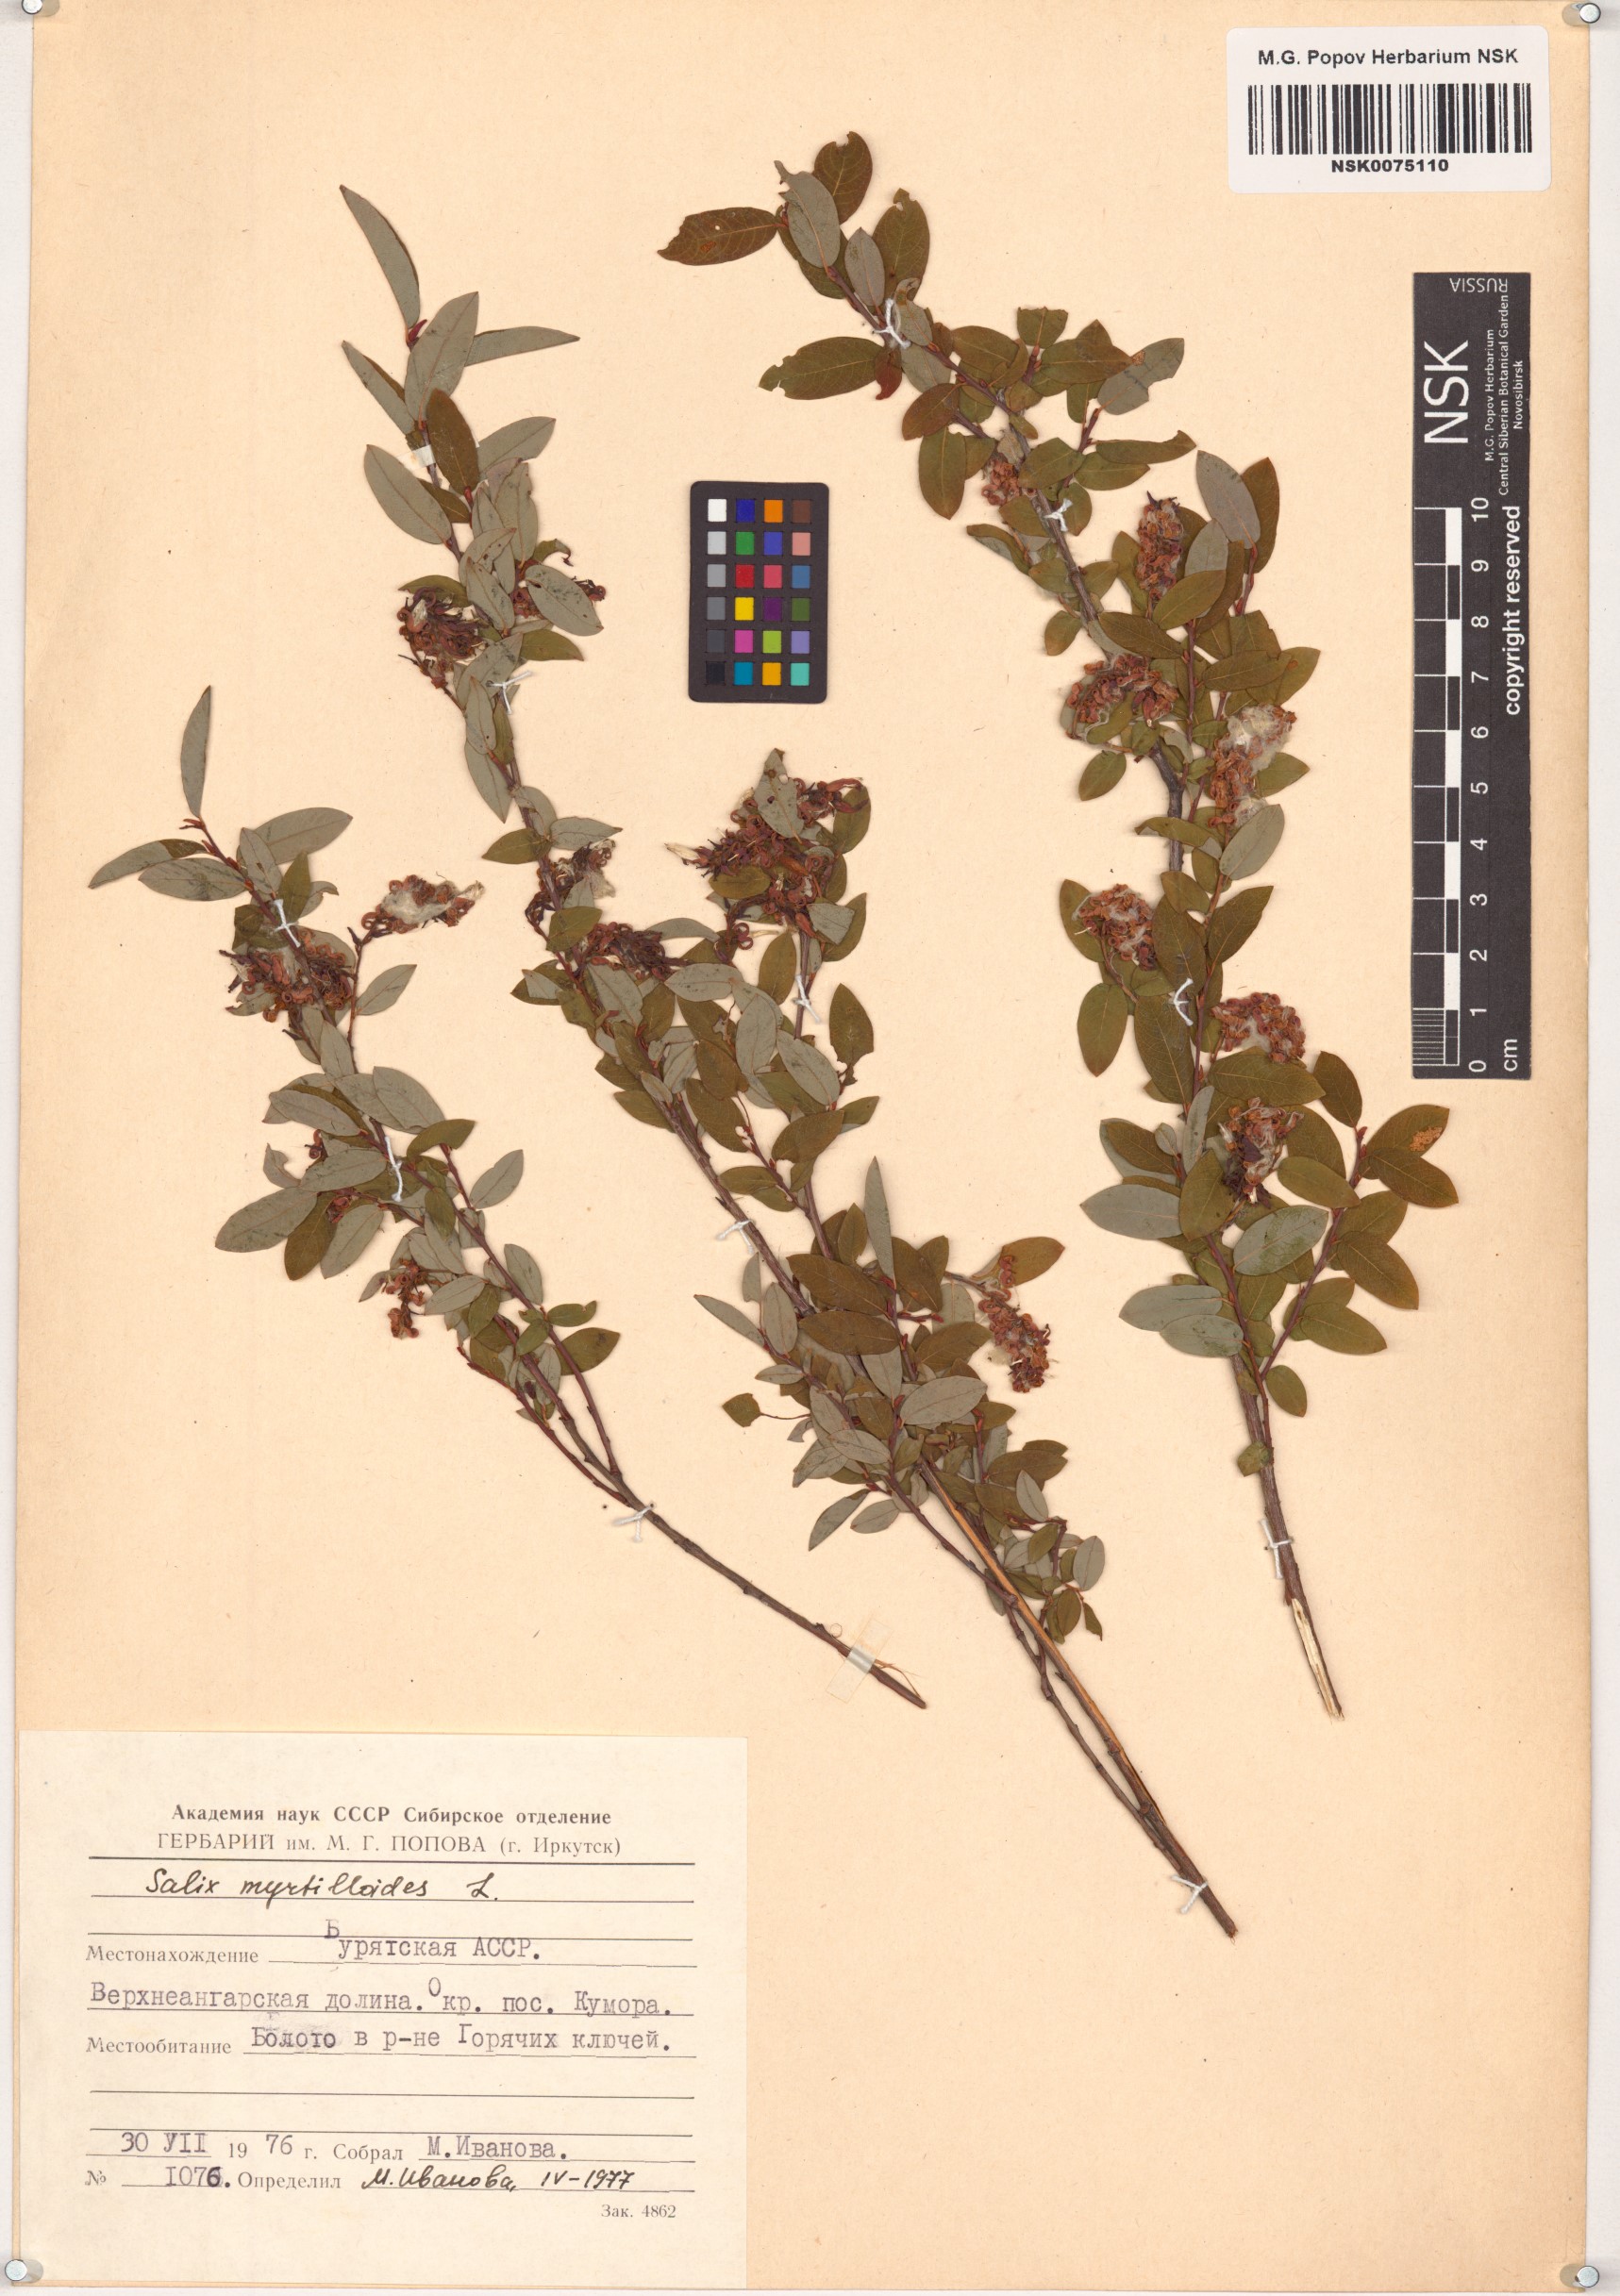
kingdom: Plantae
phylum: Tracheophyta
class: Magnoliopsida
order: Malpighiales
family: Salicaceae
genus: Salix
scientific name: Salix myrtilloides
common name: Myrtle-leaved willow
